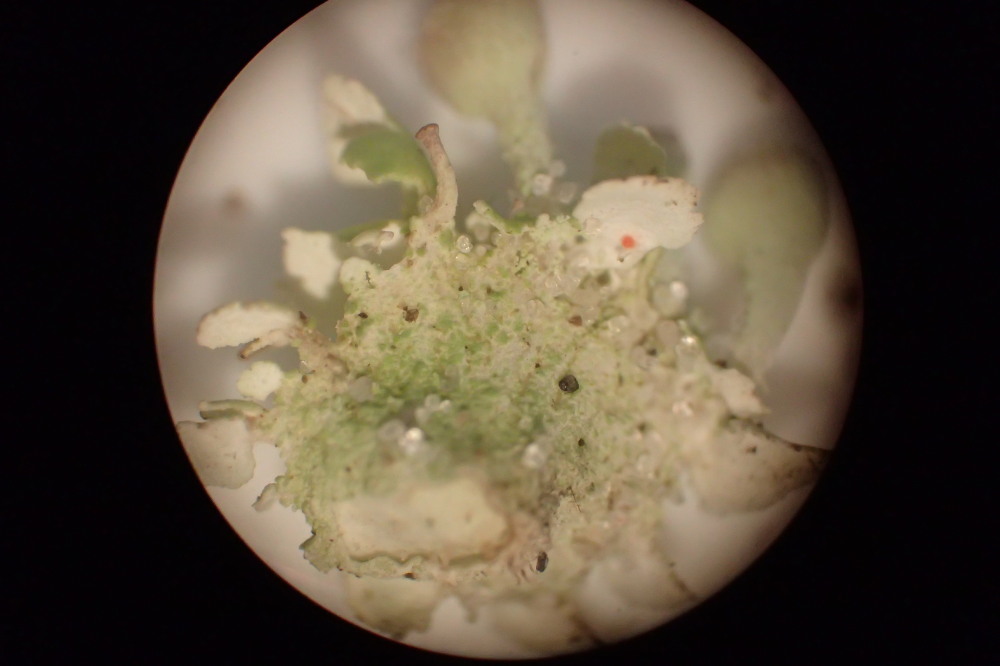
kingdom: Fungi
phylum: Ascomycota
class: Lecanoromycetes
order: Lecanorales
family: Cladoniaceae
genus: Cladonia
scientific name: Cladonia humilis
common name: lav bægerlav
